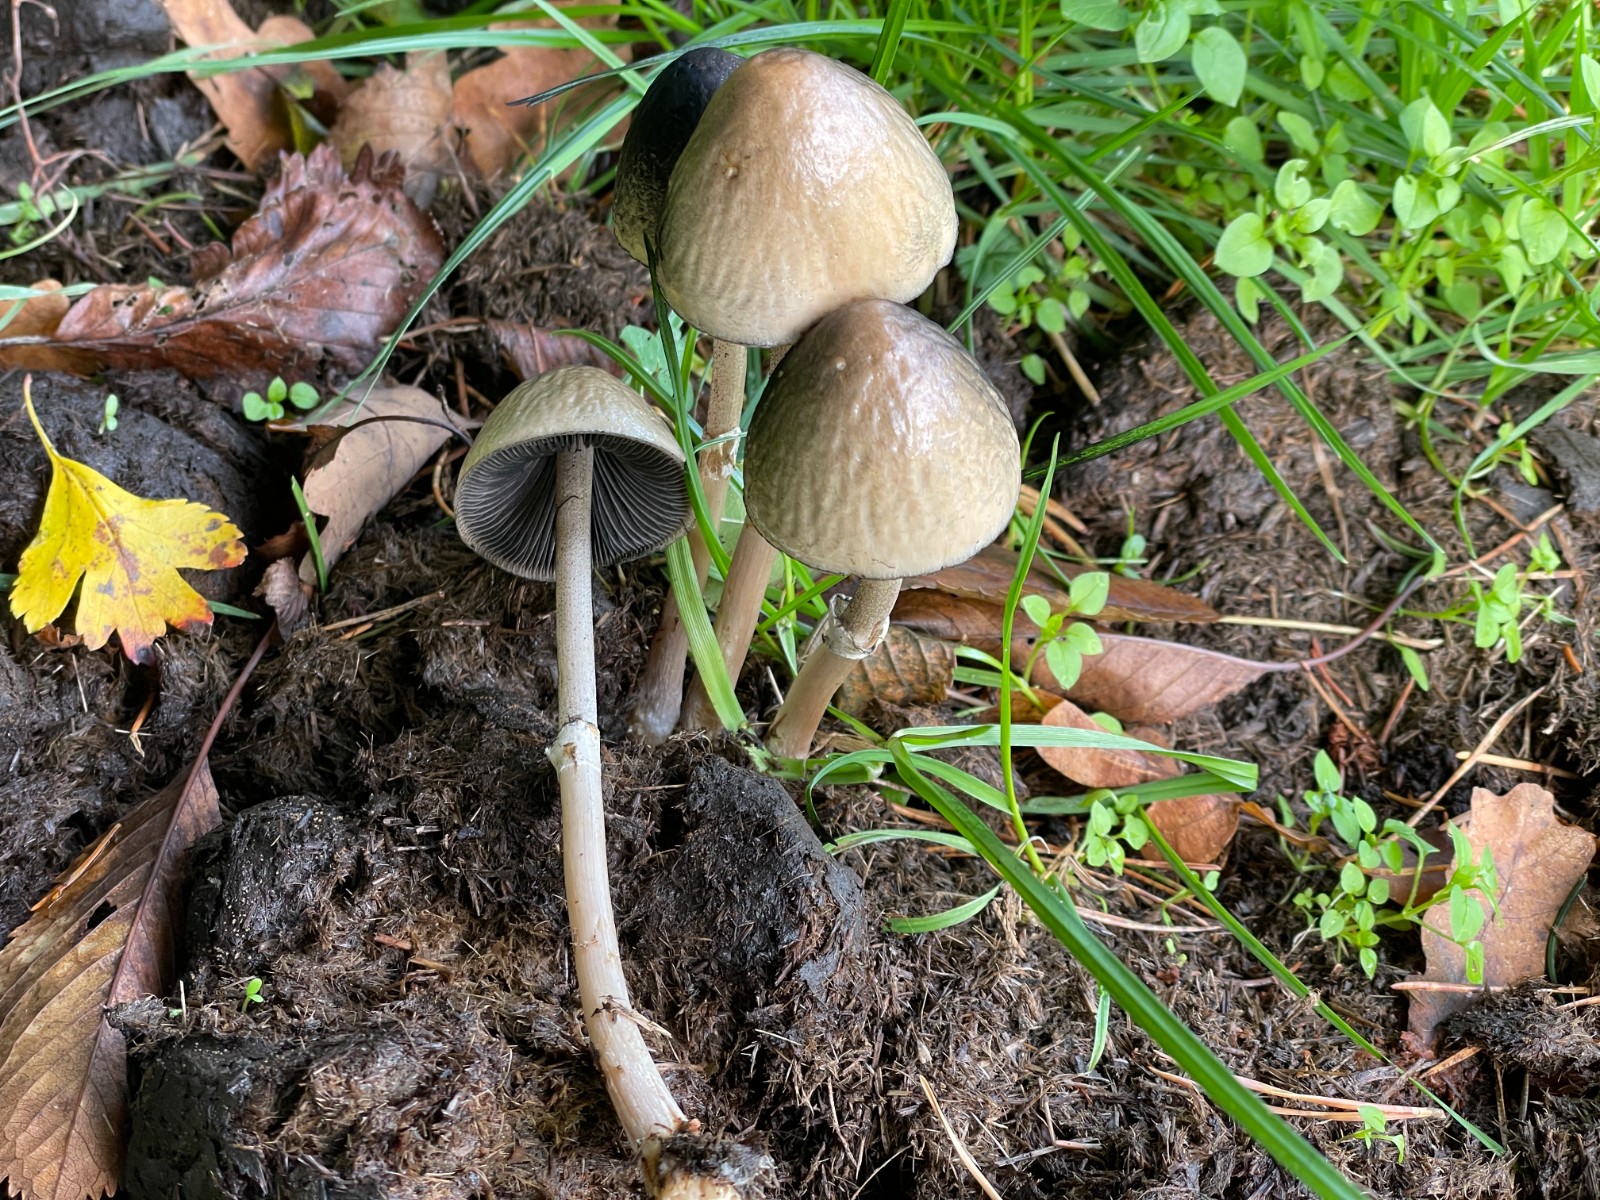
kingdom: Fungi
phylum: Basidiomycota
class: Agaricomycetes
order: Agaricales
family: Bolbitiaceae
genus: Panaeolus
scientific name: Panaeolus semiovatus
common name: ring-glanshat
